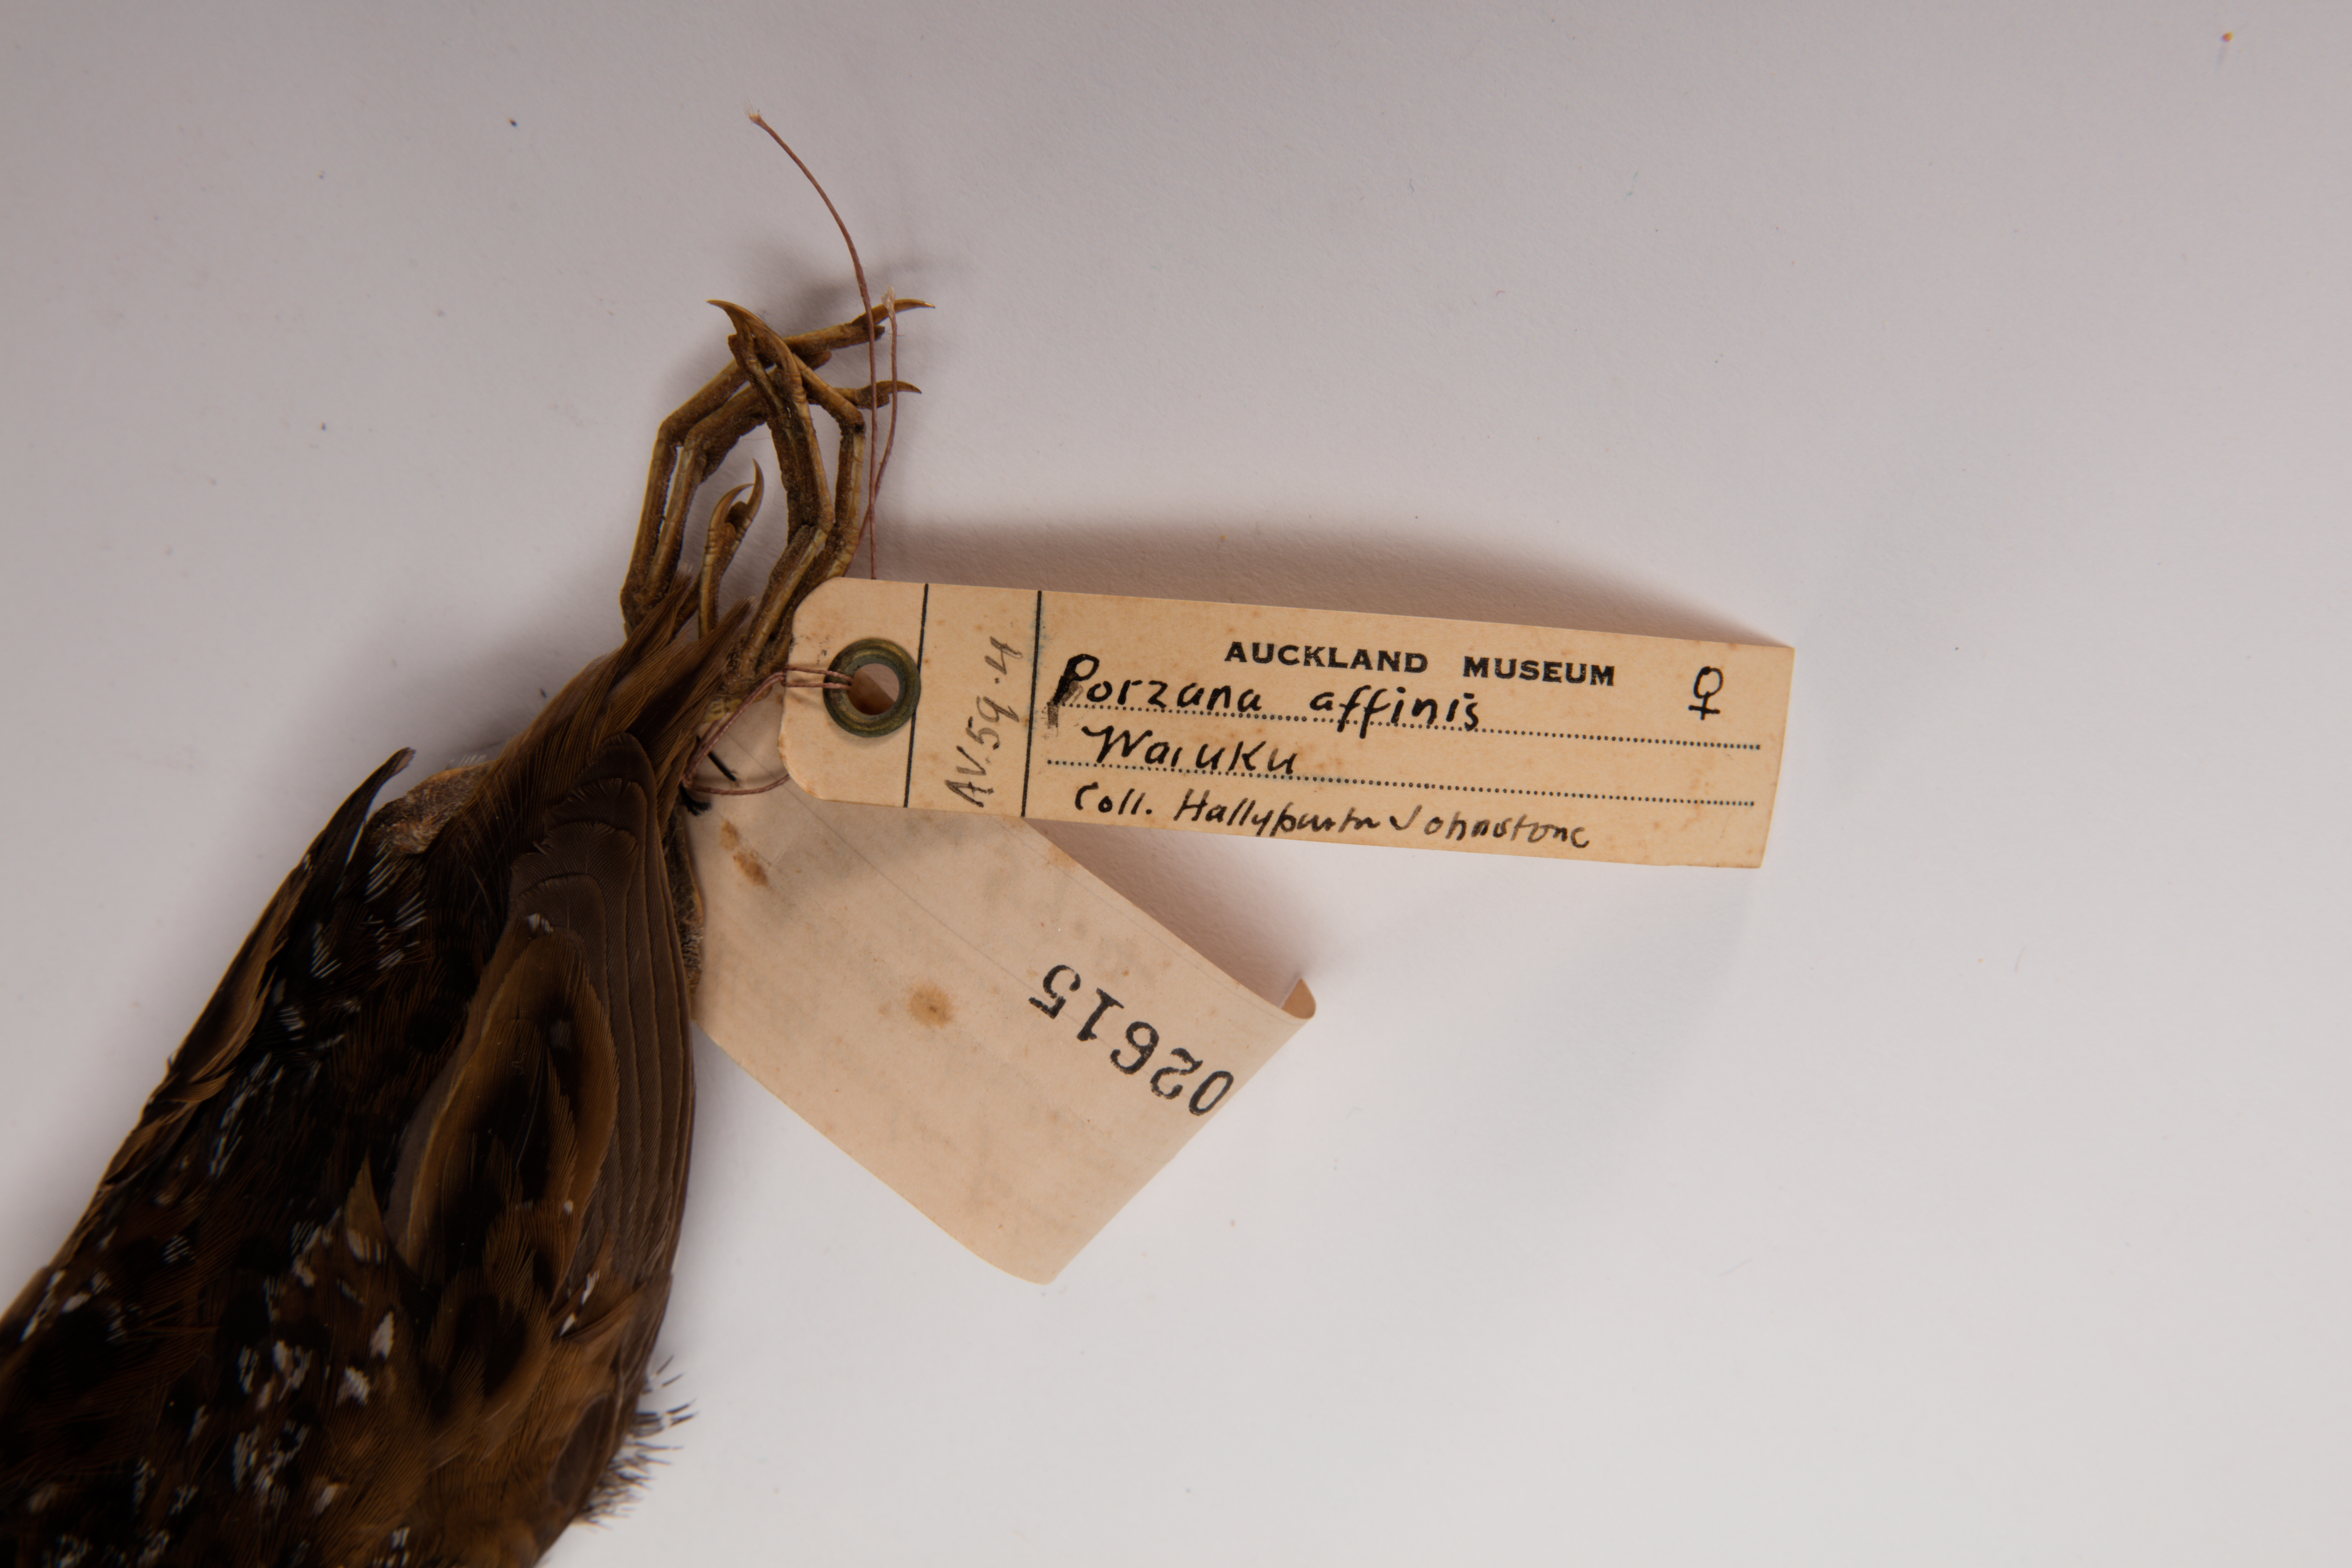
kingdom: Animalia
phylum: Chordata
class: Aves
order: Gruiformes
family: Rallidae
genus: Porzana
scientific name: Porzana pusilla
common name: Baillon's crake
